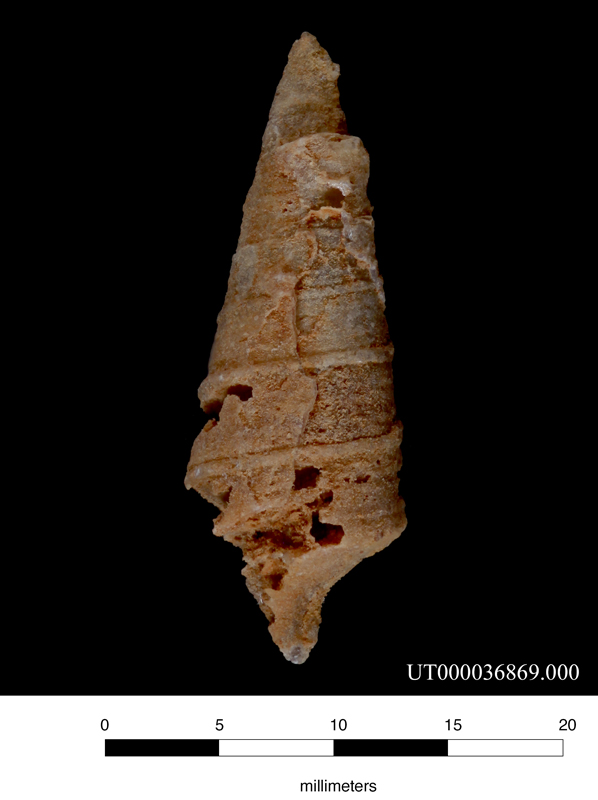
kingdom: Animalia
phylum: Mollusca
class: Gastropoda
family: Nerineidae
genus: Nerinea
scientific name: Nerinea
